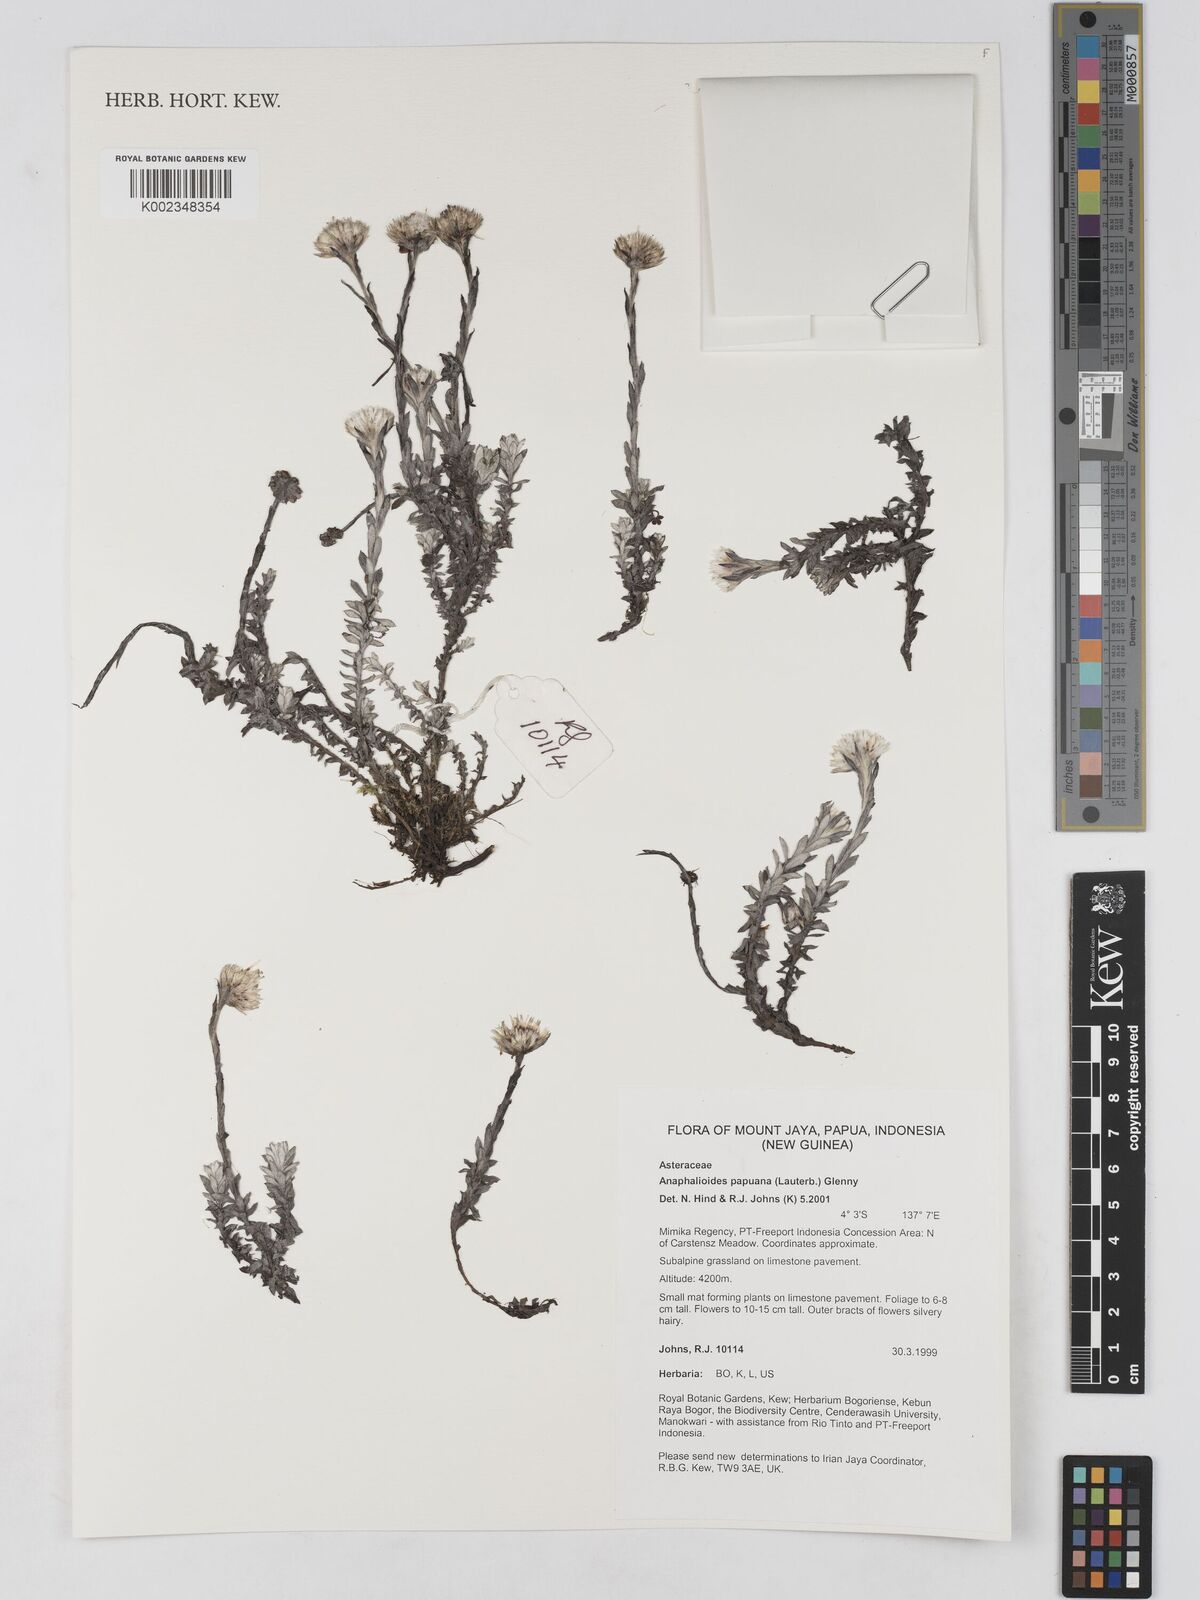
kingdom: Plantae
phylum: Tracheophyta
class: Magnoliopsida
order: Asterales
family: Asteraceae
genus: Anaphalioides
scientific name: Anaphalioides papuana
